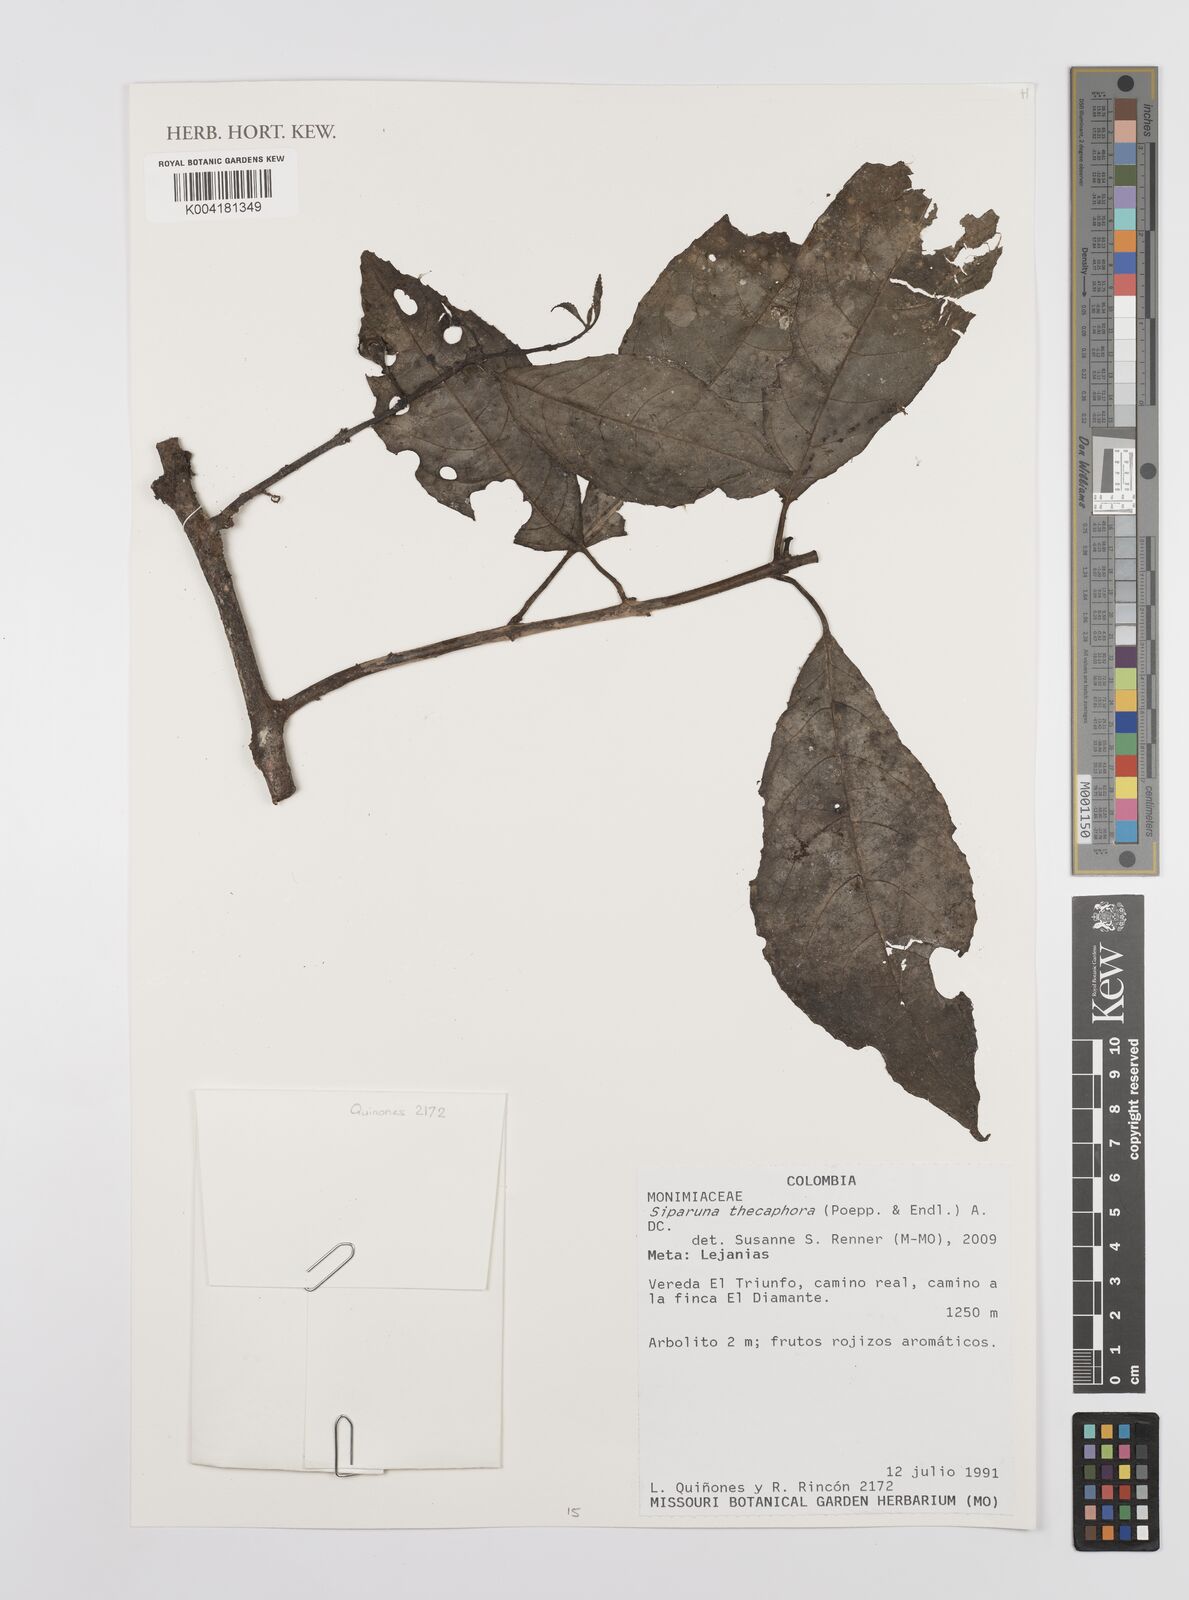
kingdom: Plantae
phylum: Tracheophyta
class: Magnoliopsida
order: Laurales
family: Siparunaceae
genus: Siparuna
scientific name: Siparuna thecaphora
